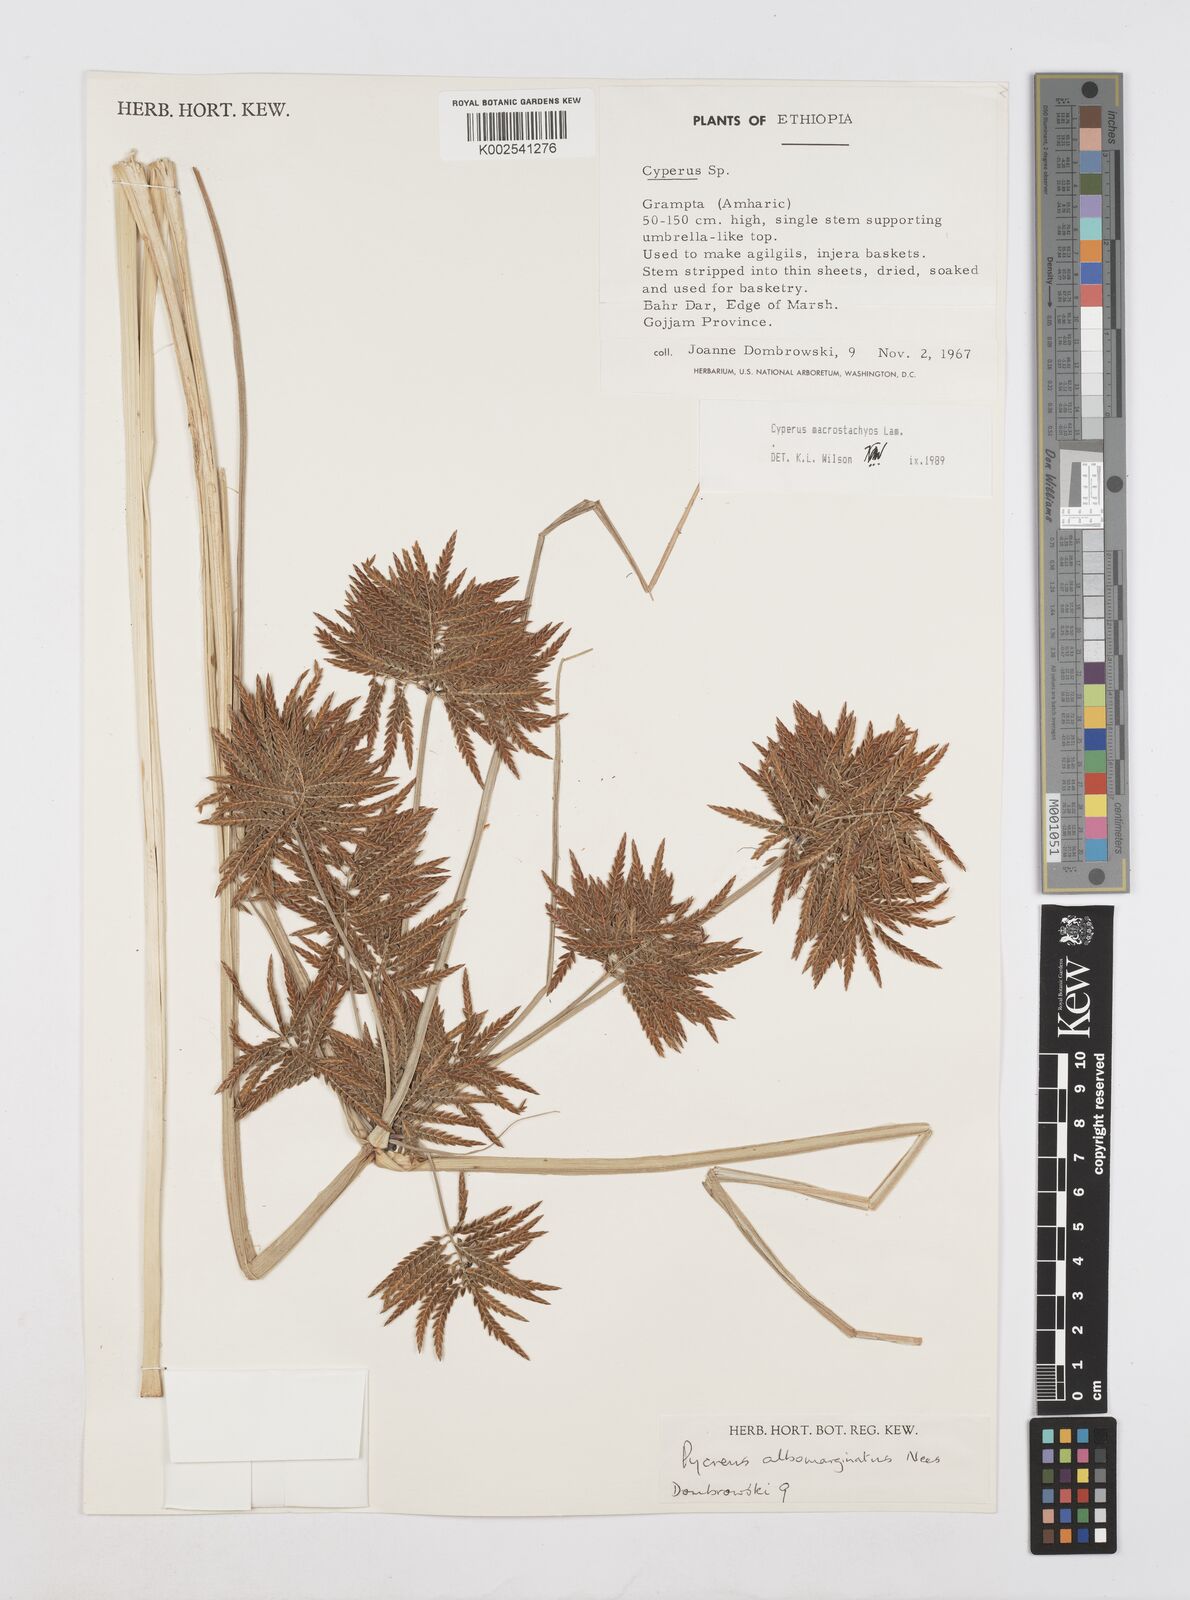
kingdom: Plantae
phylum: Tracheophyta
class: Liliopsida
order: Poales
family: Cyperaceae
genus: Cyperus
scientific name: Cyperus macrostachyos
